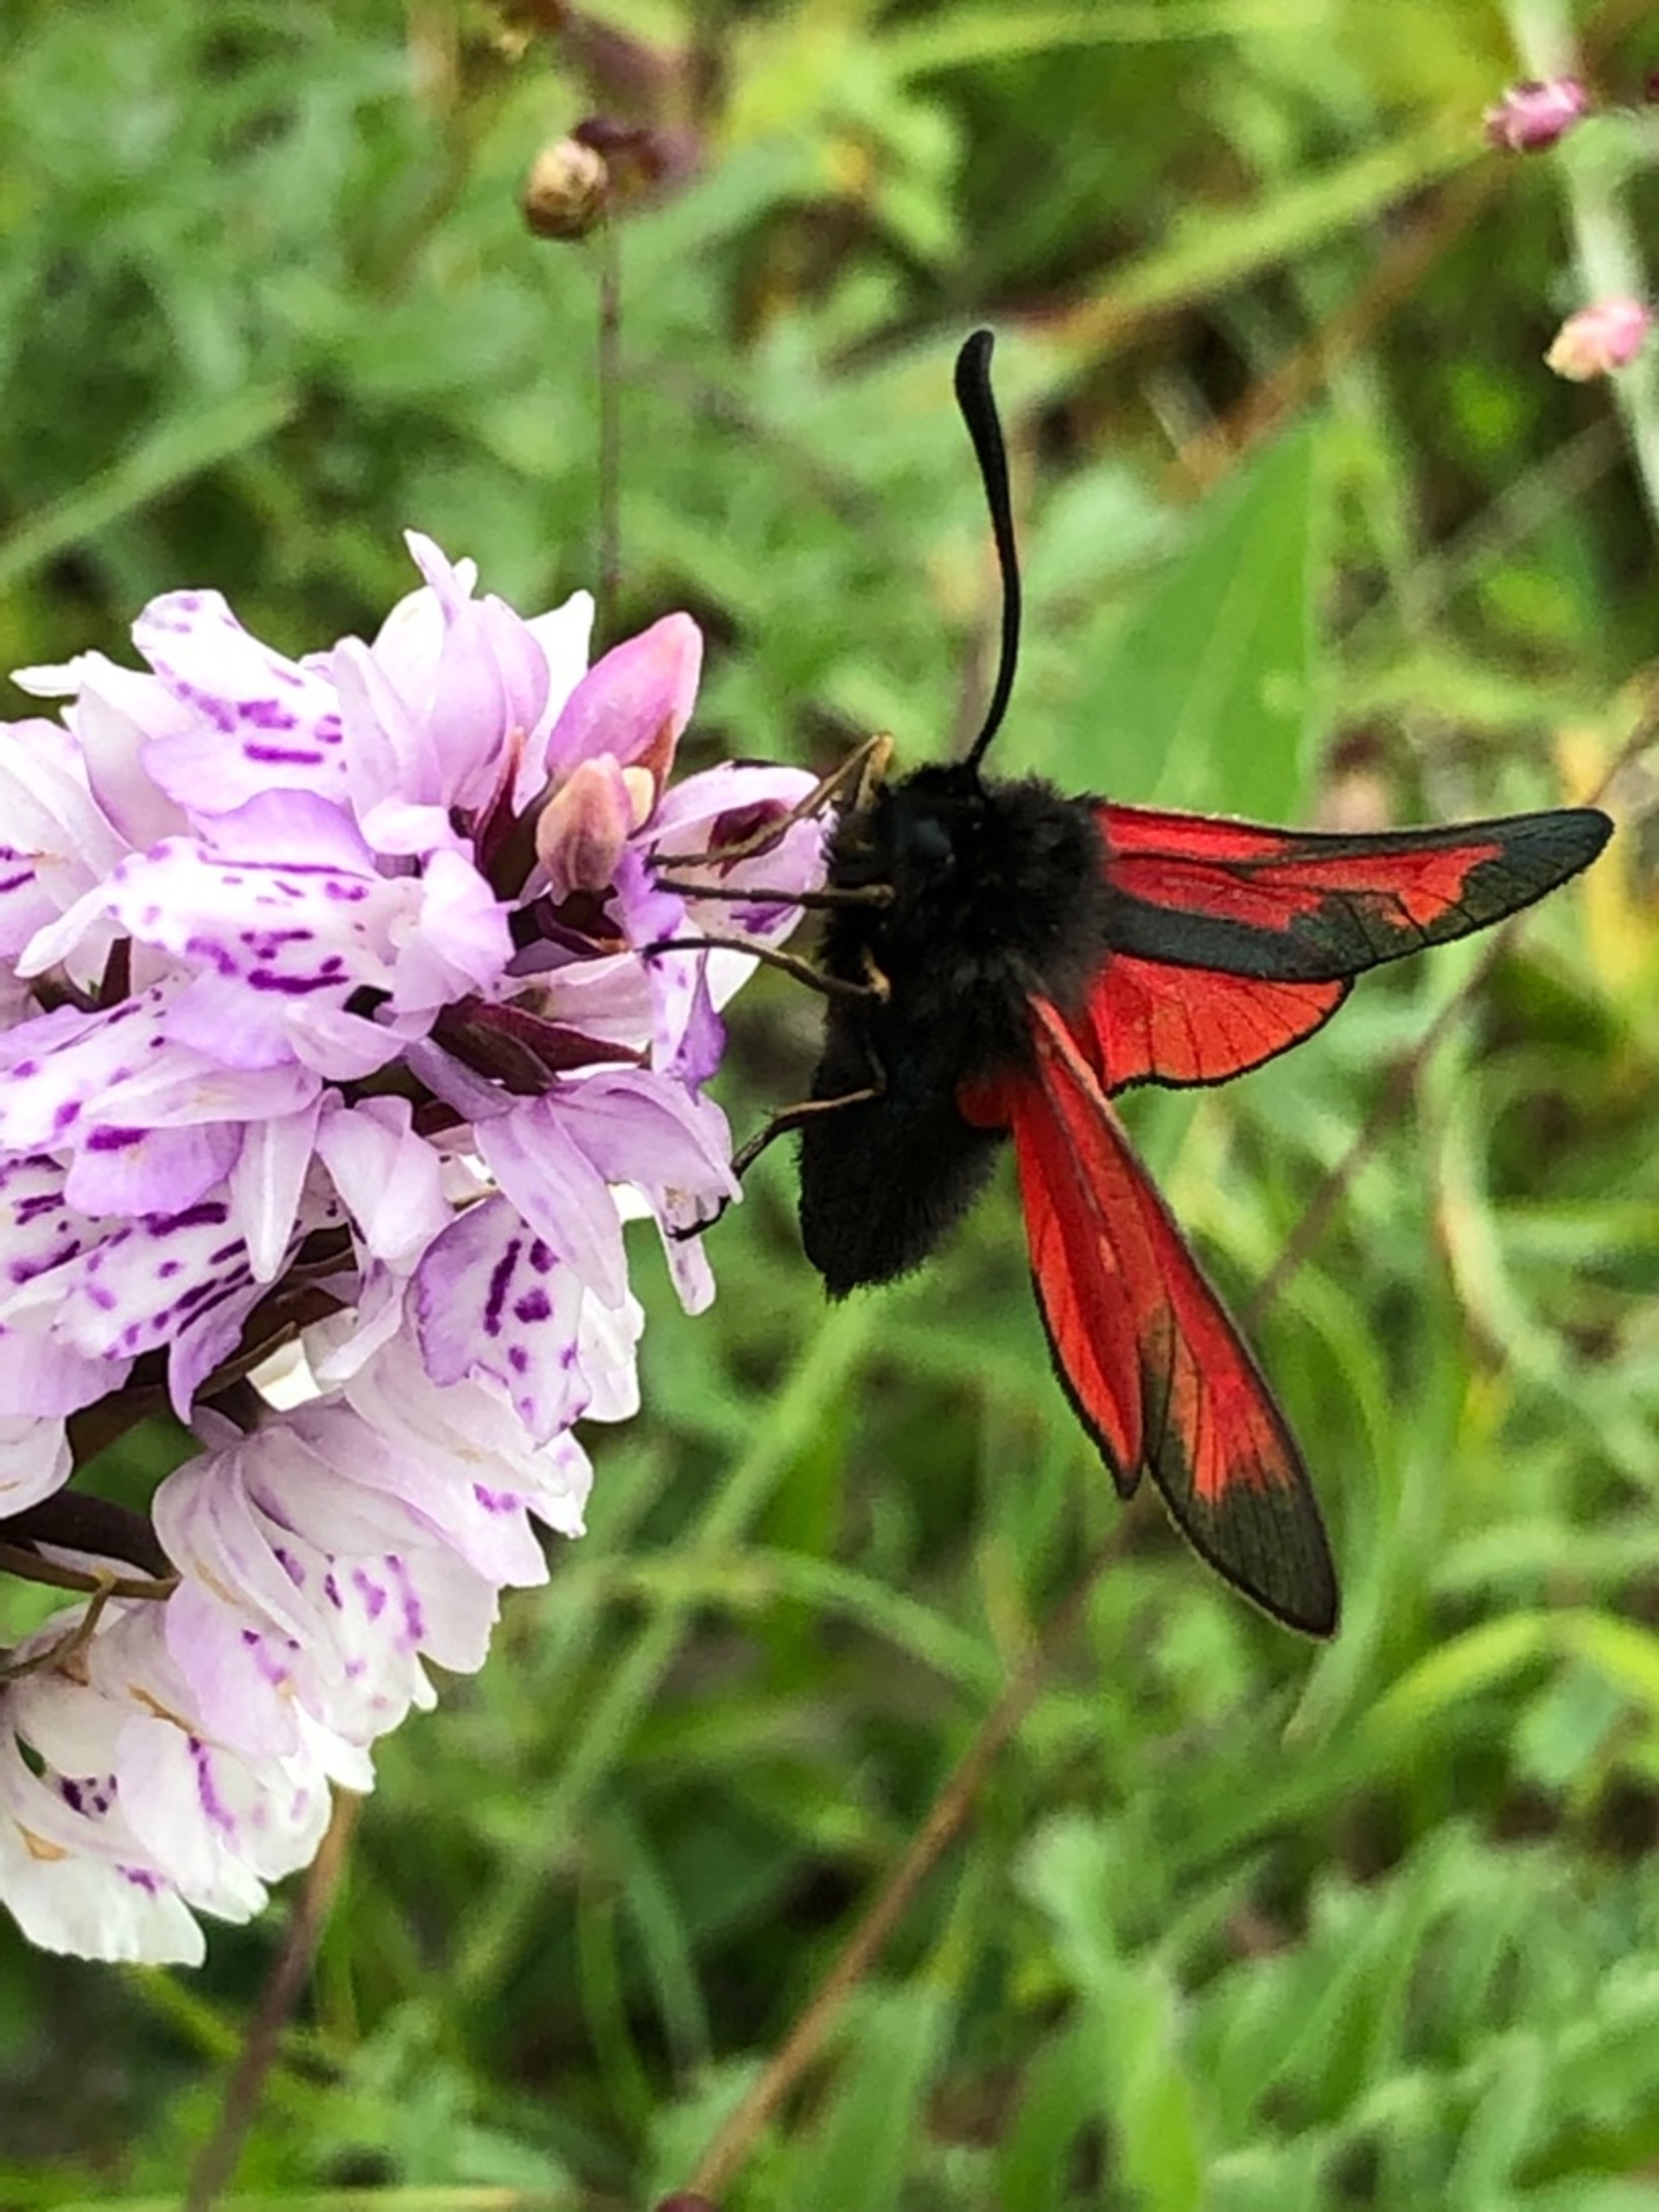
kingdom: Animalia
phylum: Arthropoda
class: Insecta
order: Lepidoptera
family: Zygaenidae
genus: Zygaena
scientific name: Zygaena purpuralis
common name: Timiankøllesværmer
